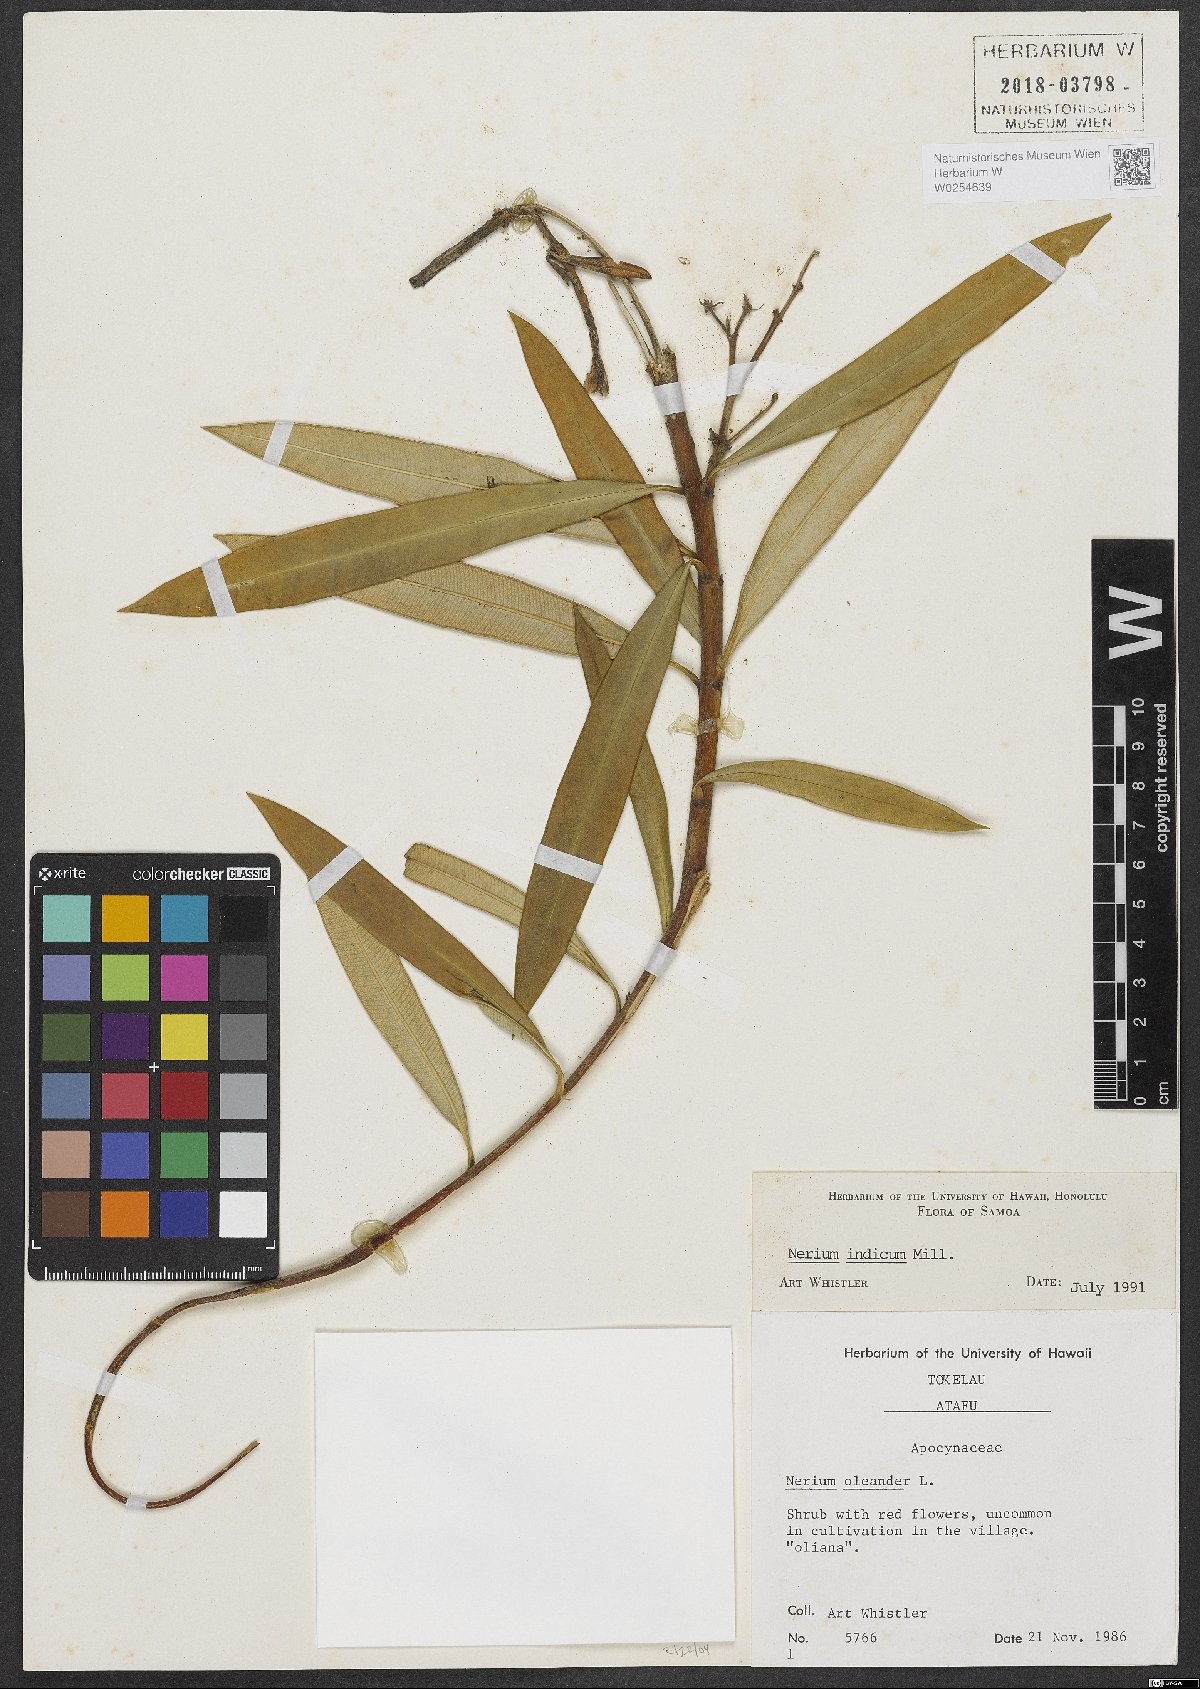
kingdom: Plantae
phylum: Tracheophyta
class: Magnoliopsida
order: Gentianales
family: Apocynaceae
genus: Nerium
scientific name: Nerium indicum
